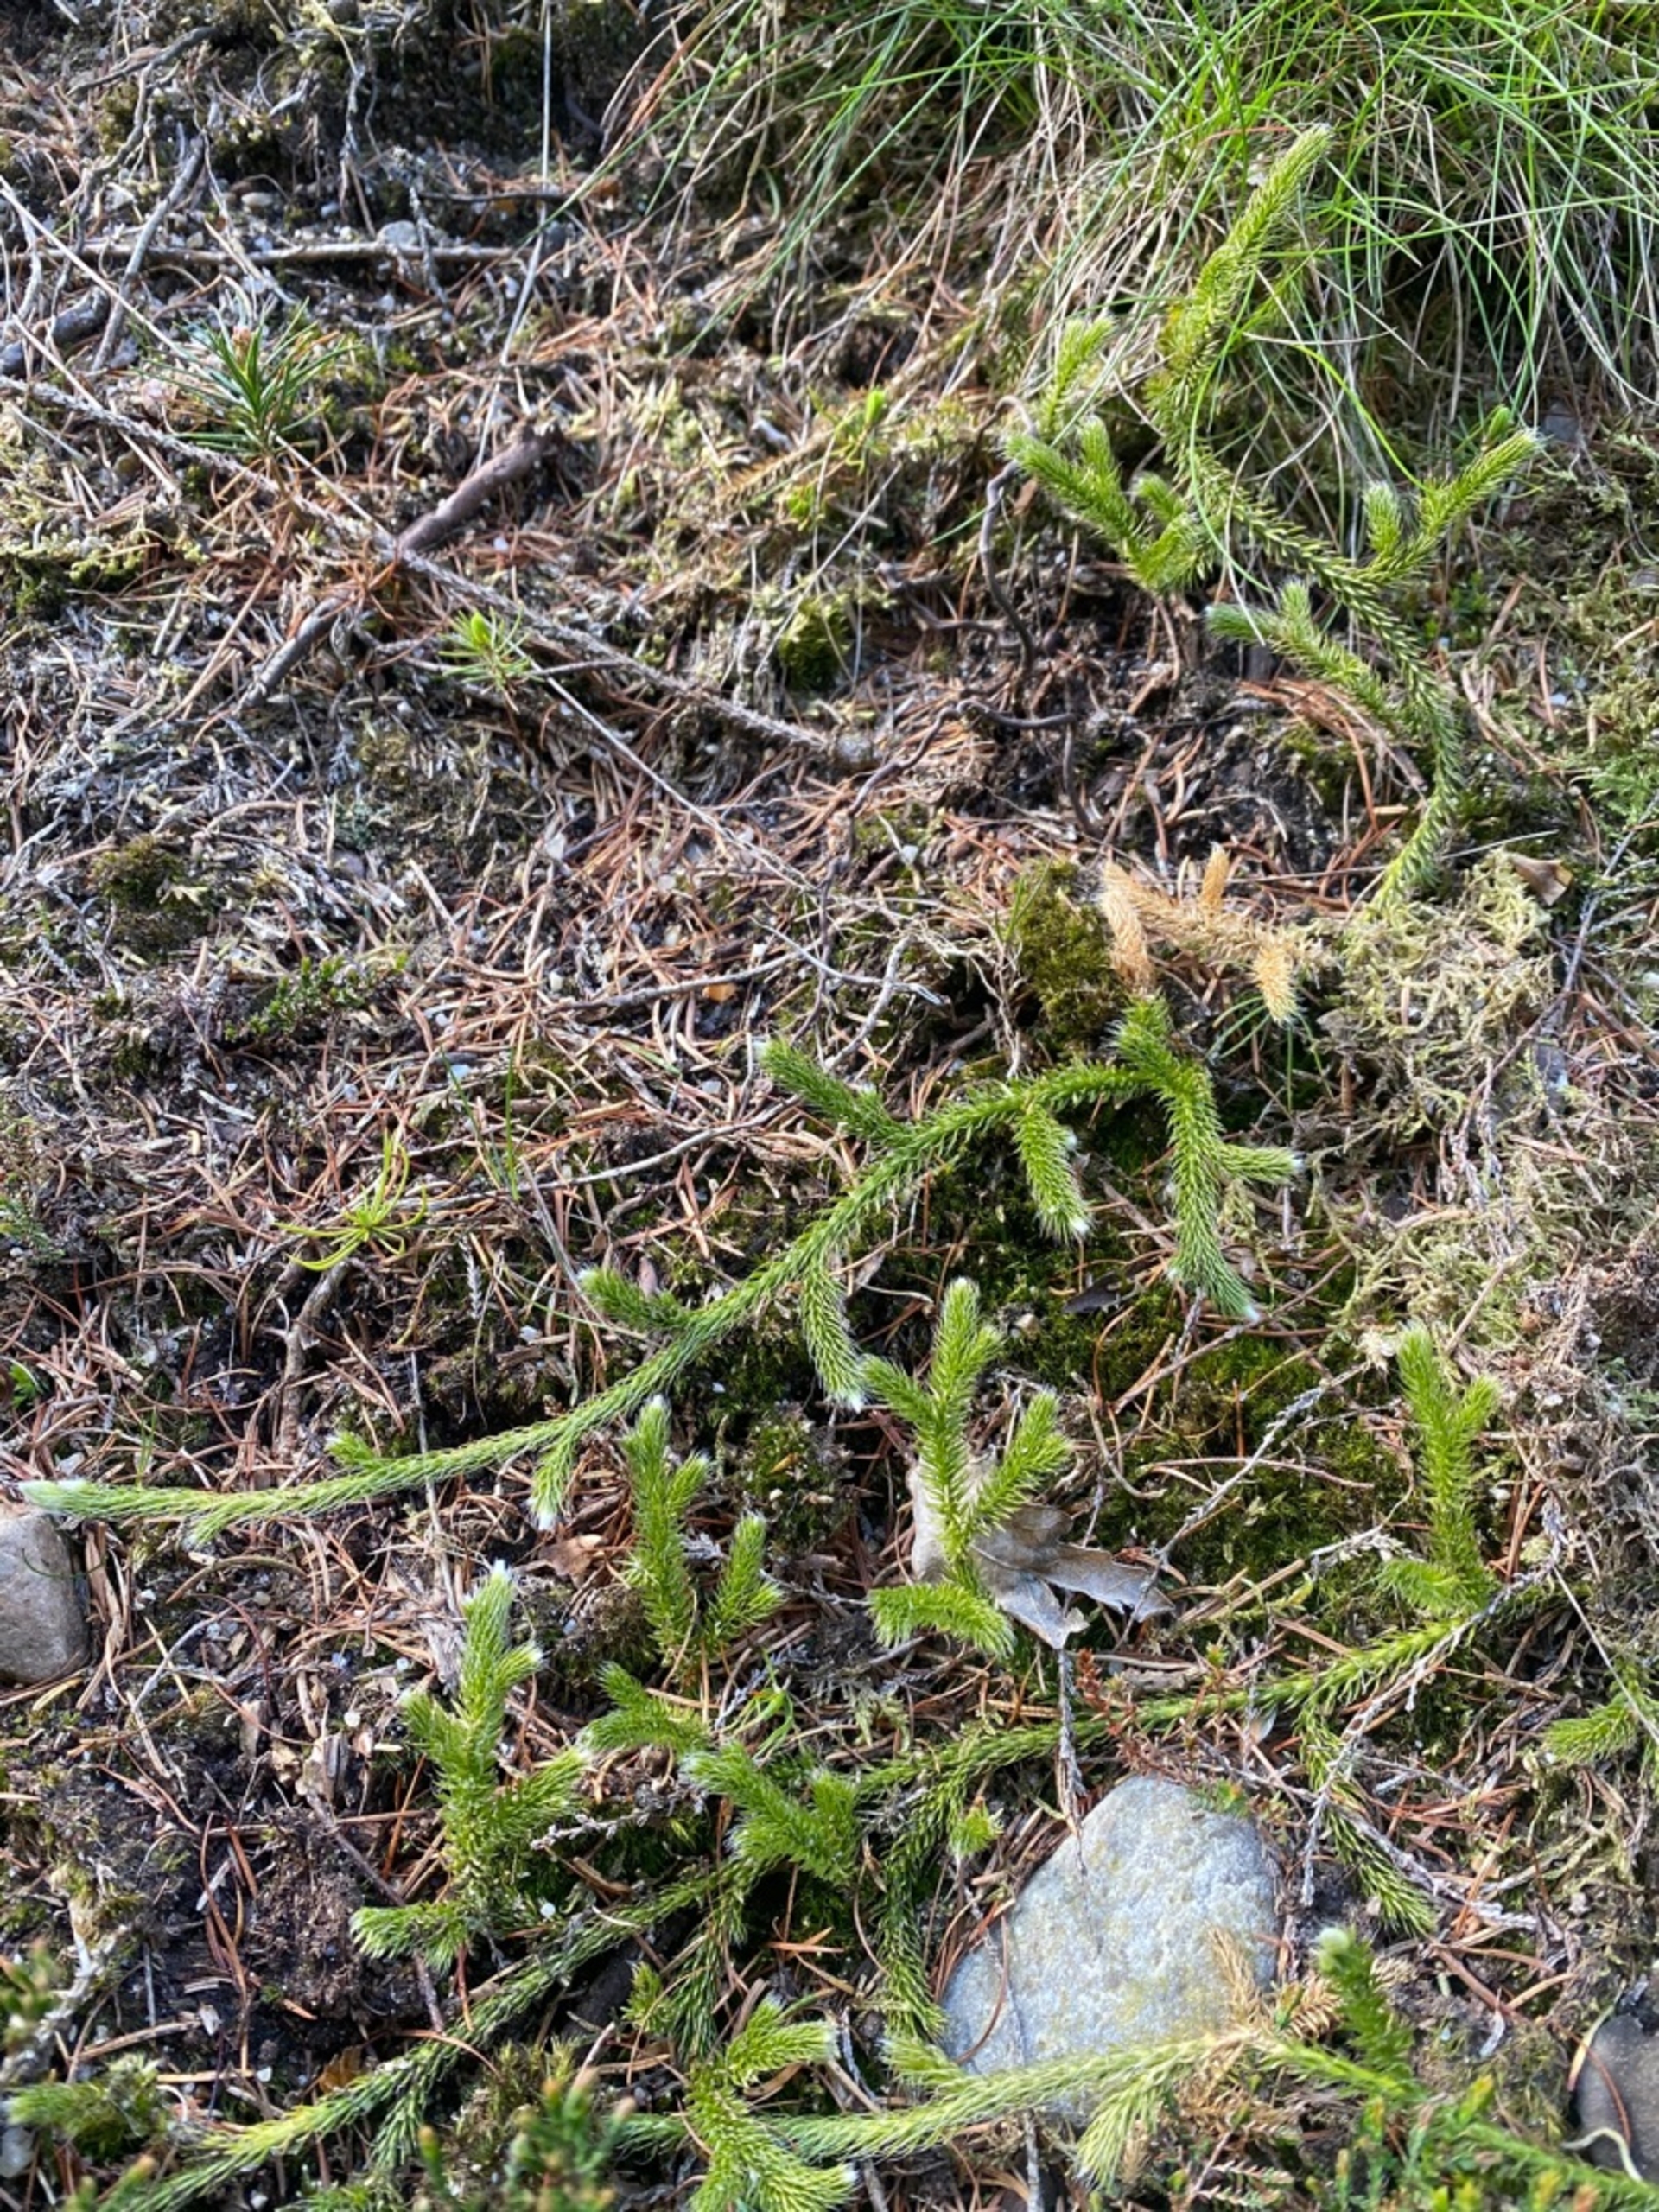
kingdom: Plantae
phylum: Tracheophyta
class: Lycopodiopsida
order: Lycopodiales
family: Lycopodiaceae
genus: Lycopodium
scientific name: Lycopodium clavatum
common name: Almindelig ulvefod
